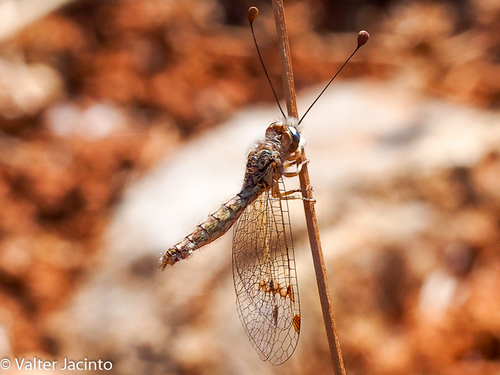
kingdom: Animalia
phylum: Arthropoda
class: Insecta
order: Neuroptera
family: Ascalaphidae
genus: Deleproctophylla
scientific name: Deleproctophylla dusmeti
